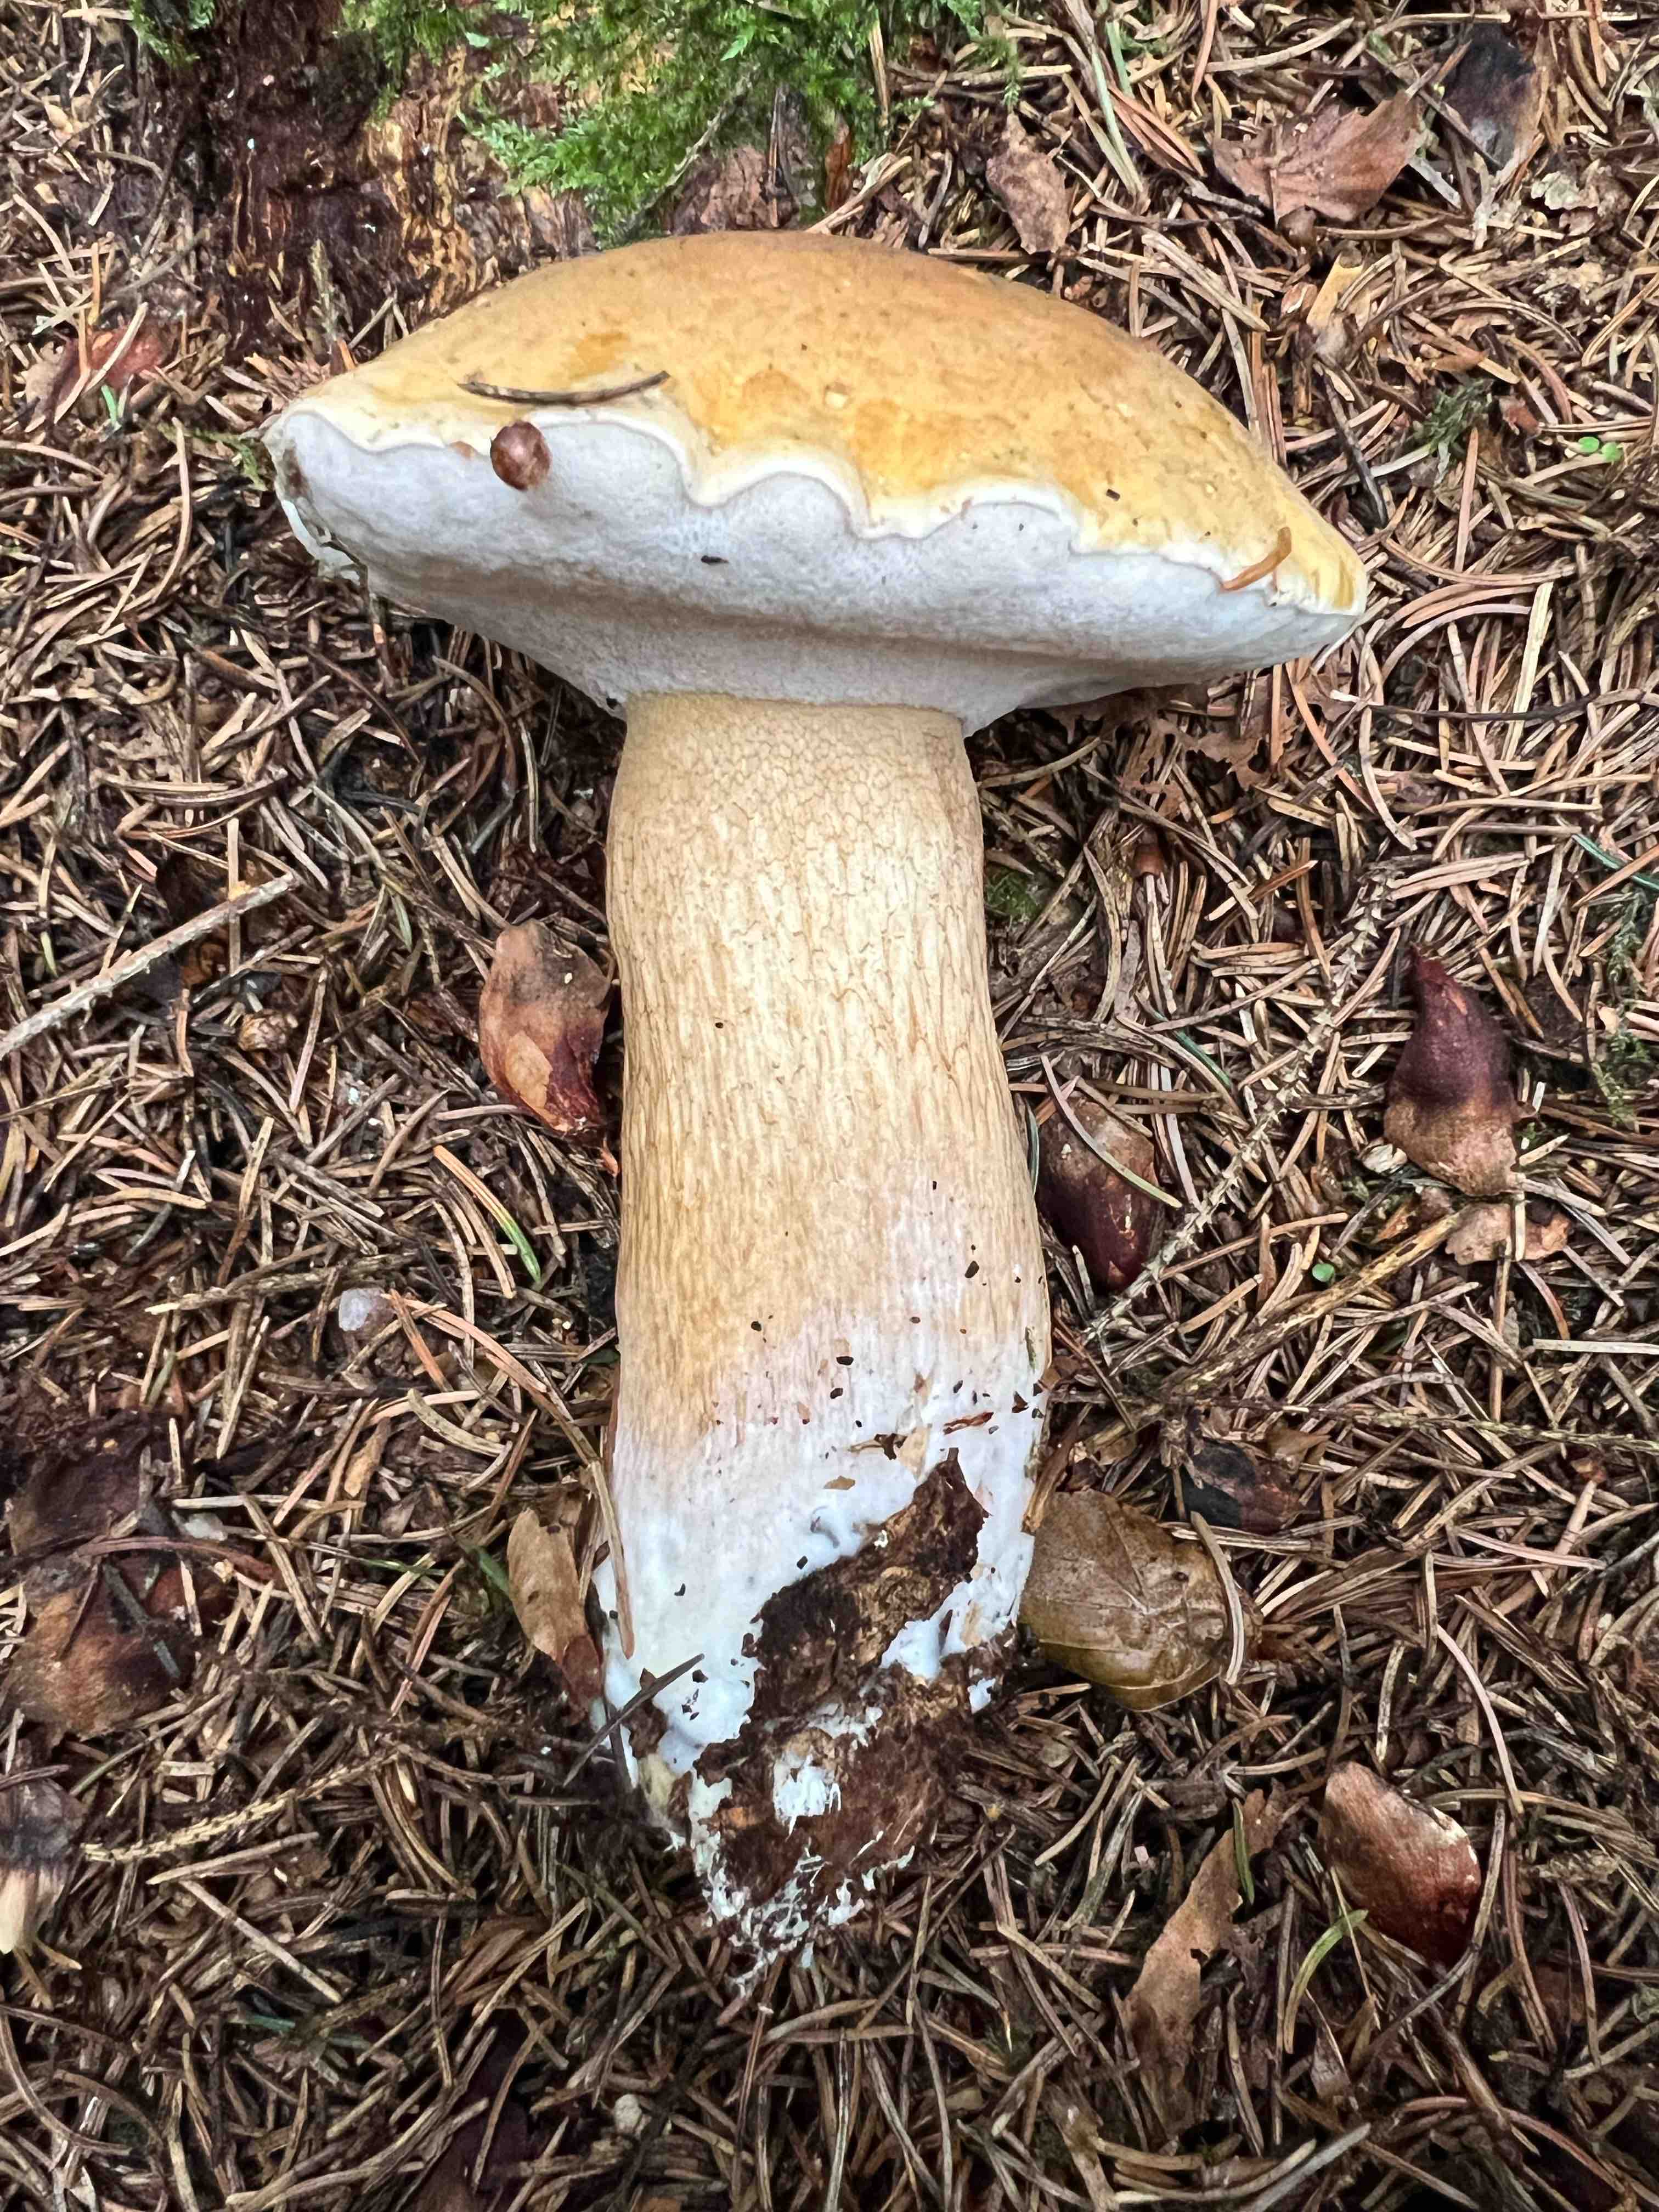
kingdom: Fungi
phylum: Basidiomycota
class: Agaricomycetes
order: Boletales
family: Boletaceae
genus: Tylopilus
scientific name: Tylopilus felleus
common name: galderørhat
